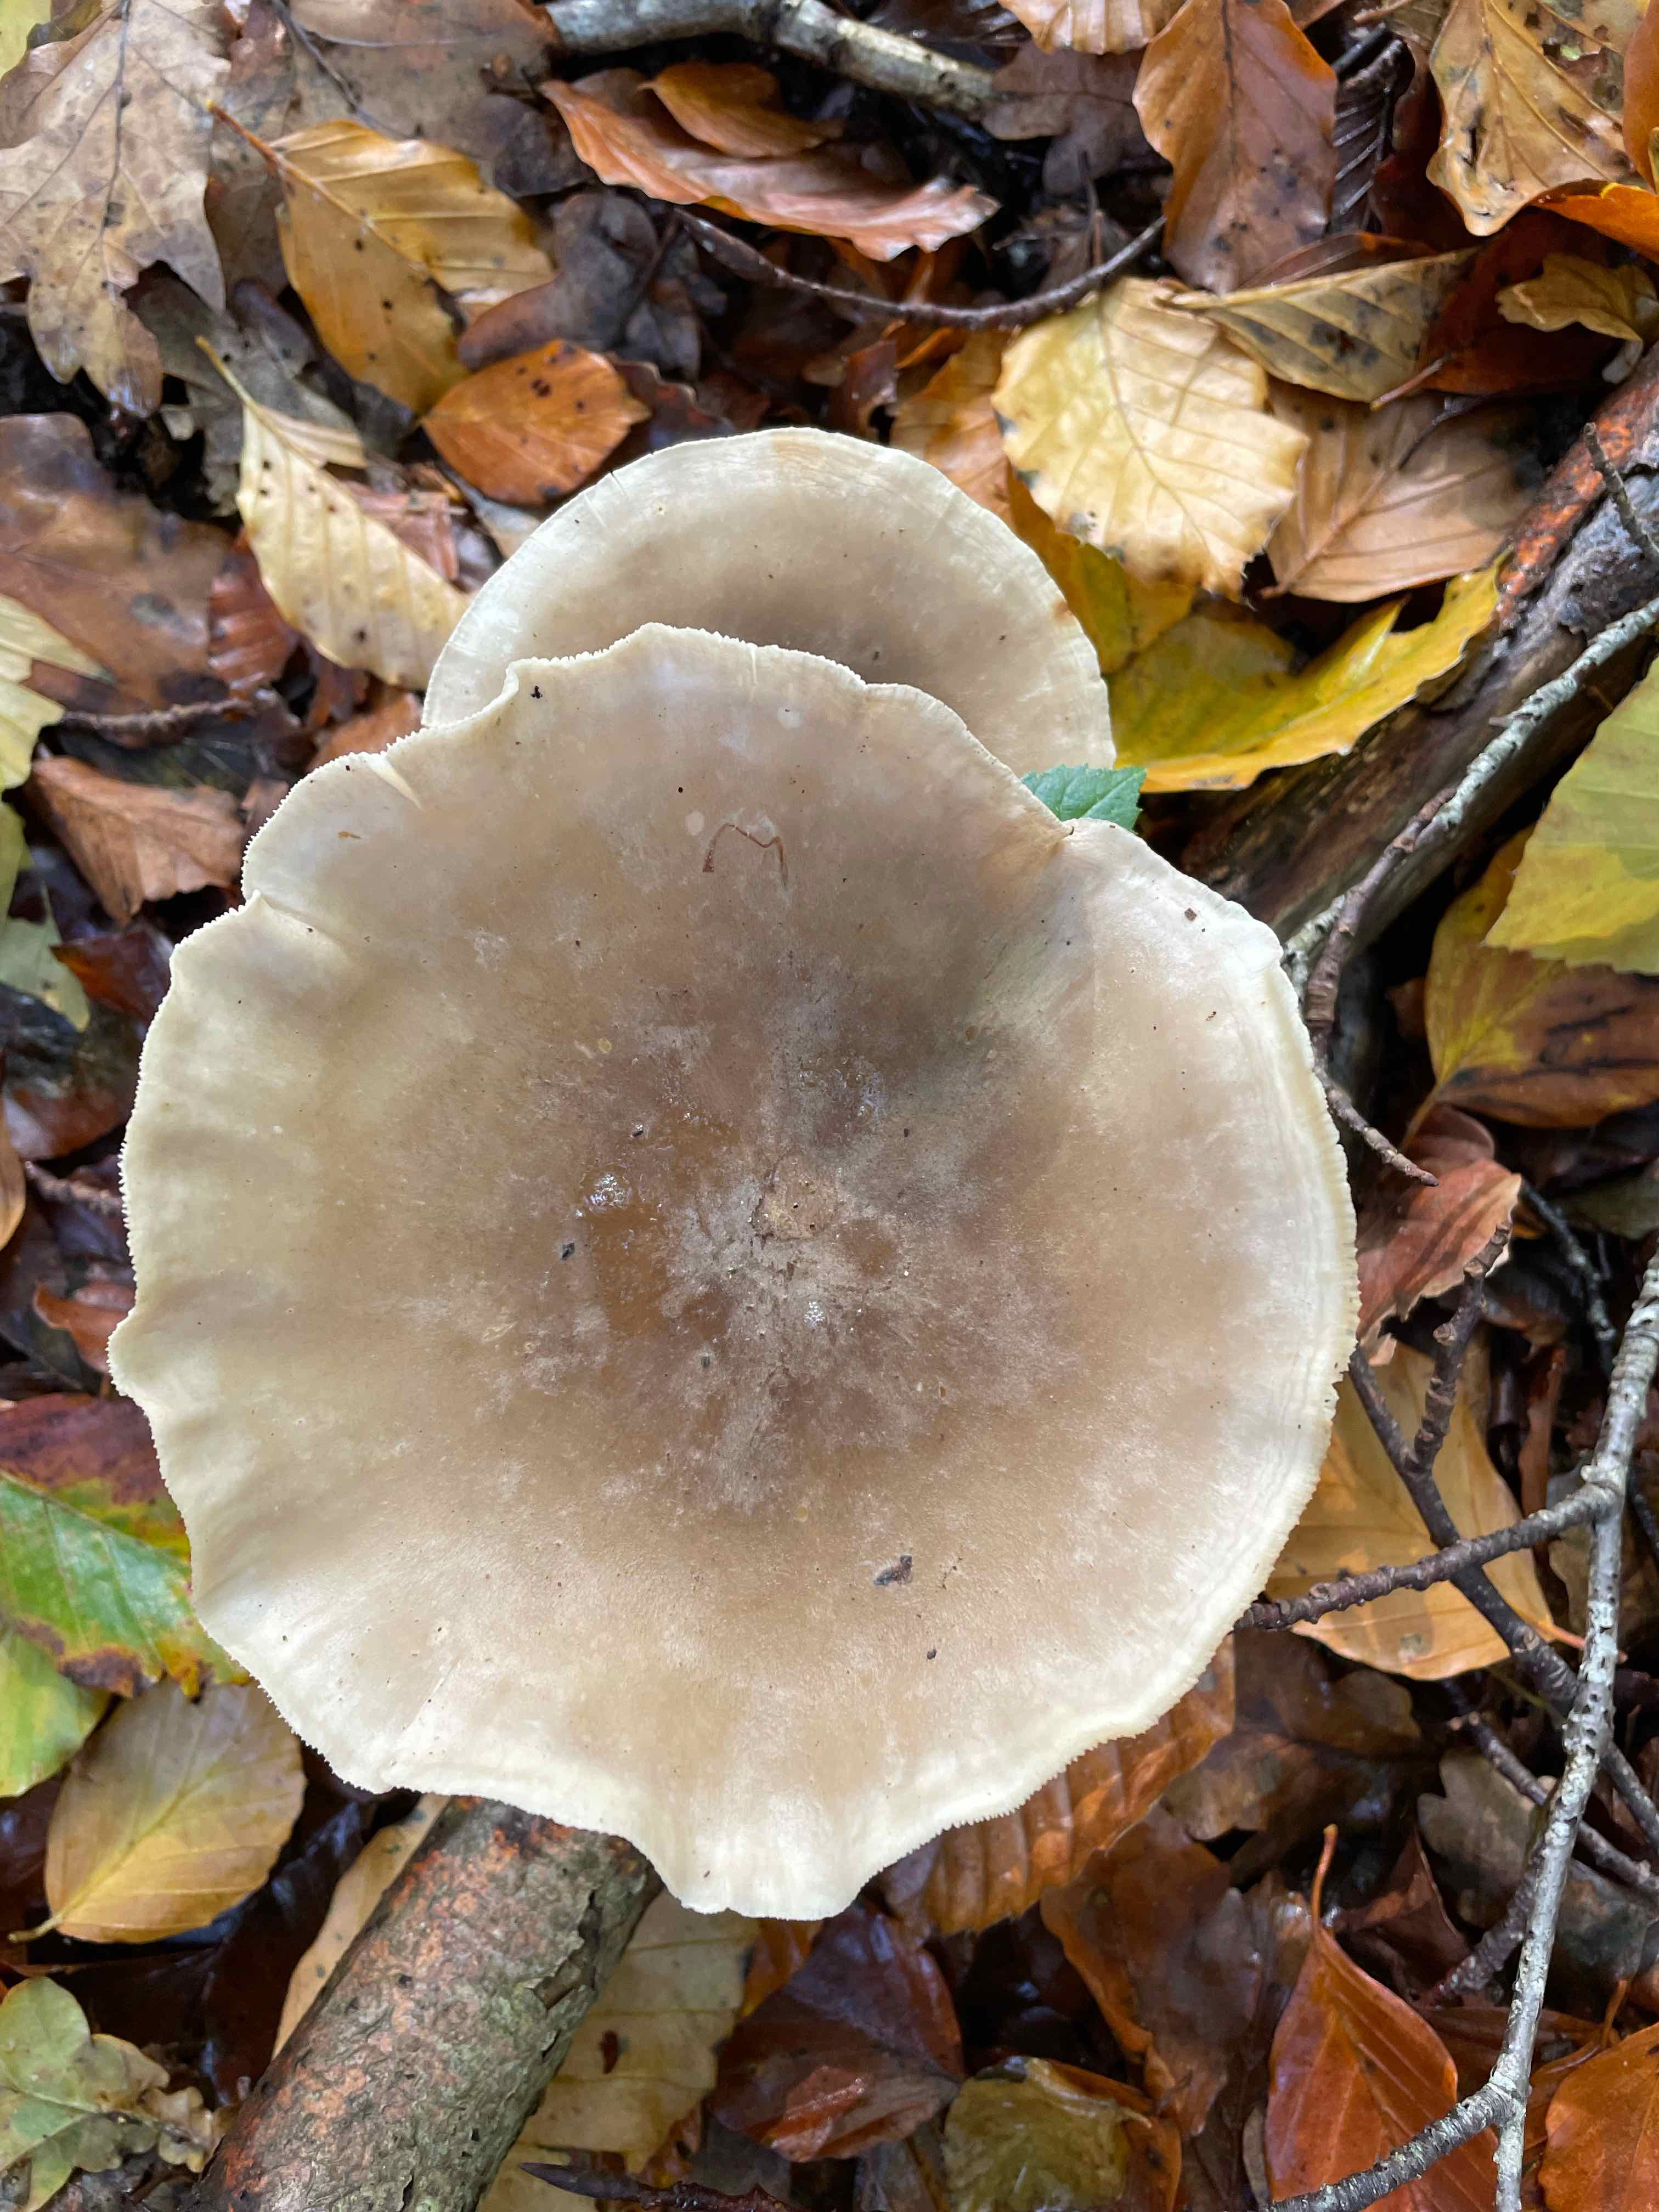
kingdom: Fungi
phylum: Basidiomycota
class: Agaricomycetes
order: Agaricales
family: Tricholomataceae
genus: Clitocybe
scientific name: Clitocybe nebularis
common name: tåge-tragthat
